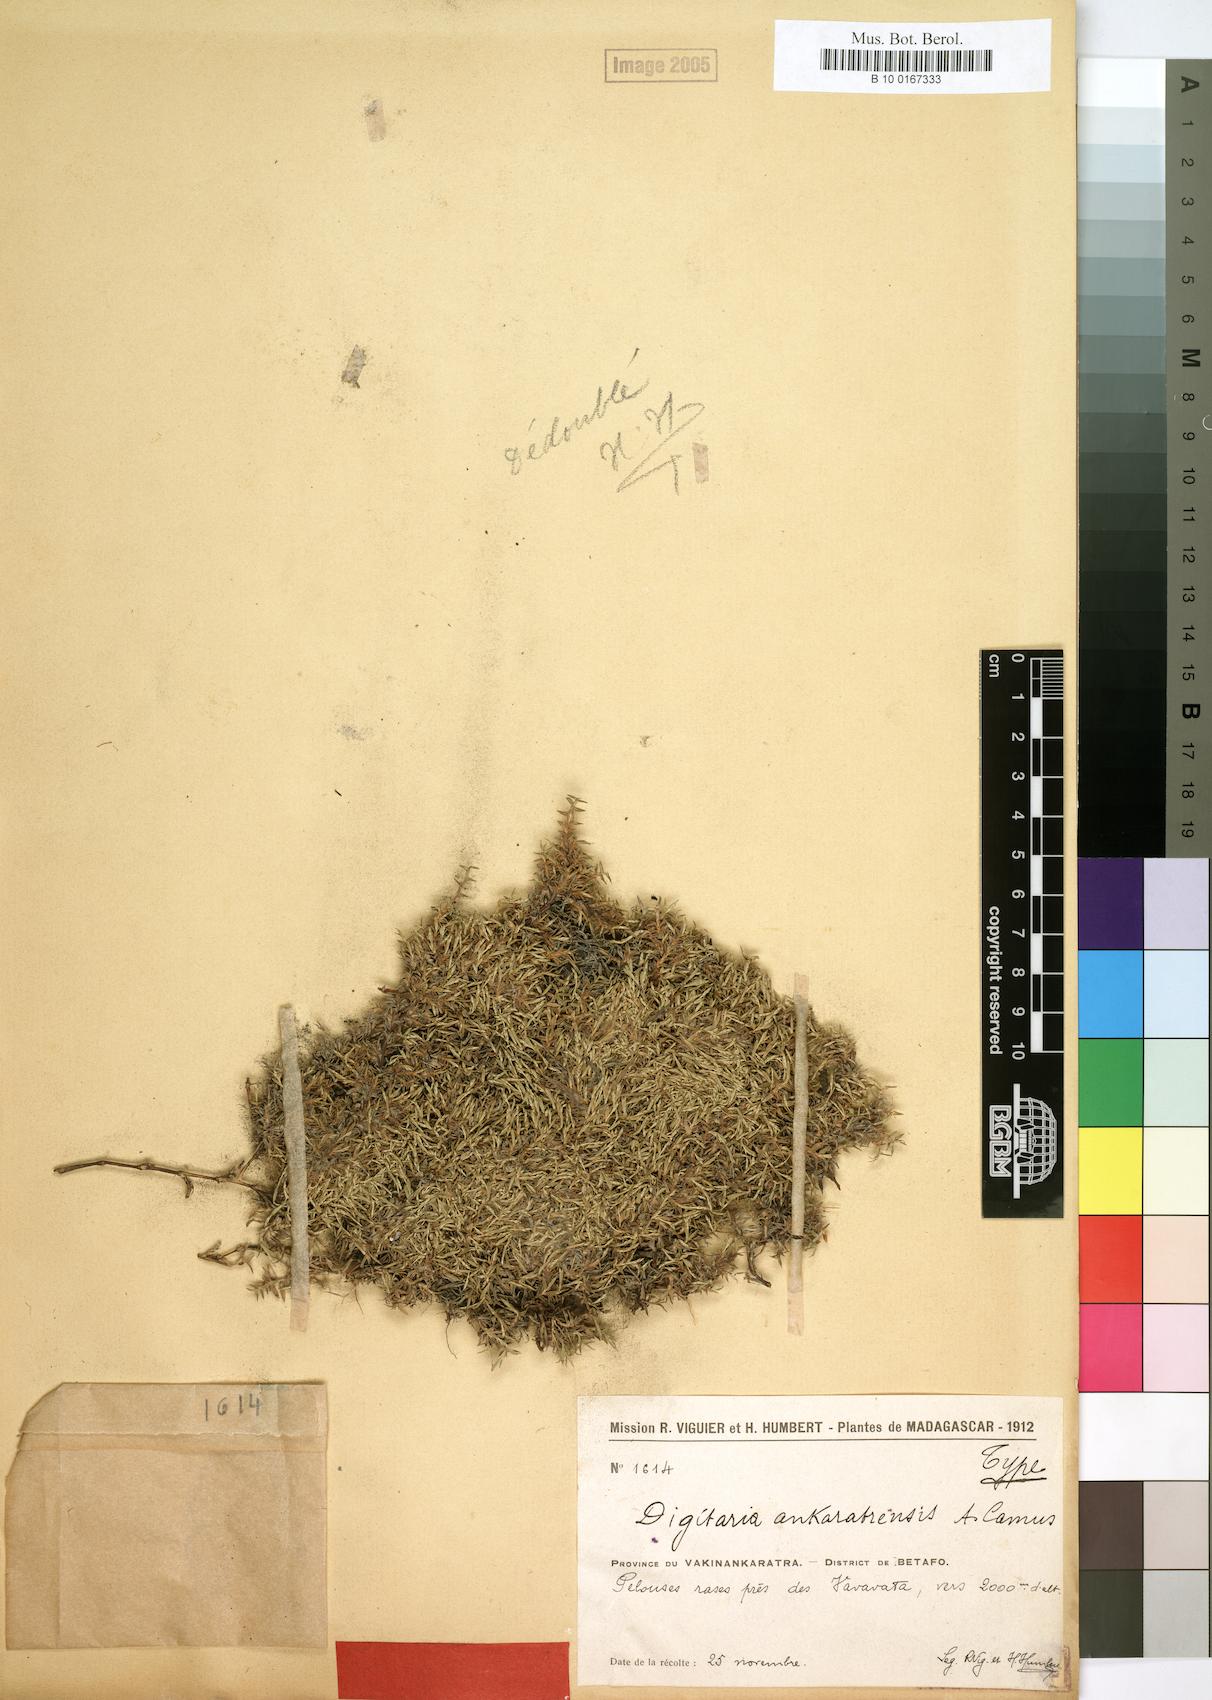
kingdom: Plantae
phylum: Tracheophyta
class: Liliopsida
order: Poales
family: Poaceae
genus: Digitaria
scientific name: Digitaria ankaratrensis
